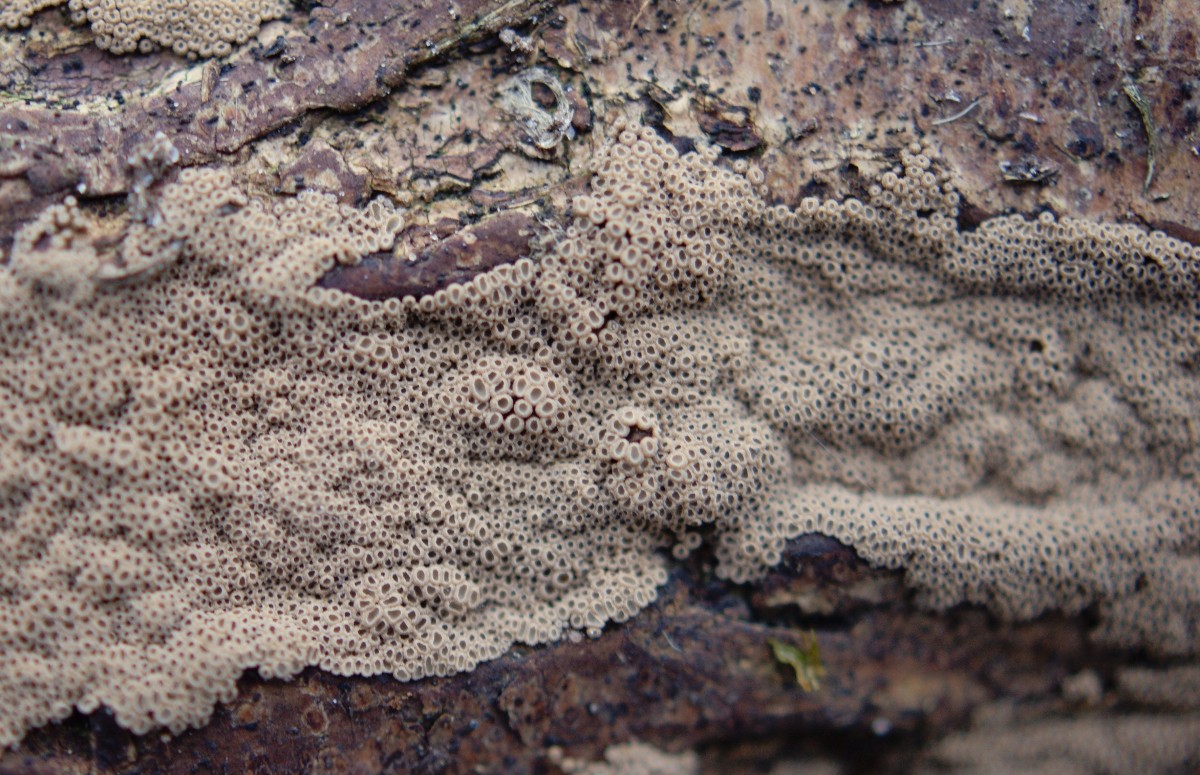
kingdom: Fungi
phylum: Basidiomycota
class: Agaricomycetes
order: Agaricales
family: Niaceae
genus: Merismodes
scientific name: Merismodes anomala
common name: almindelig læderskål
